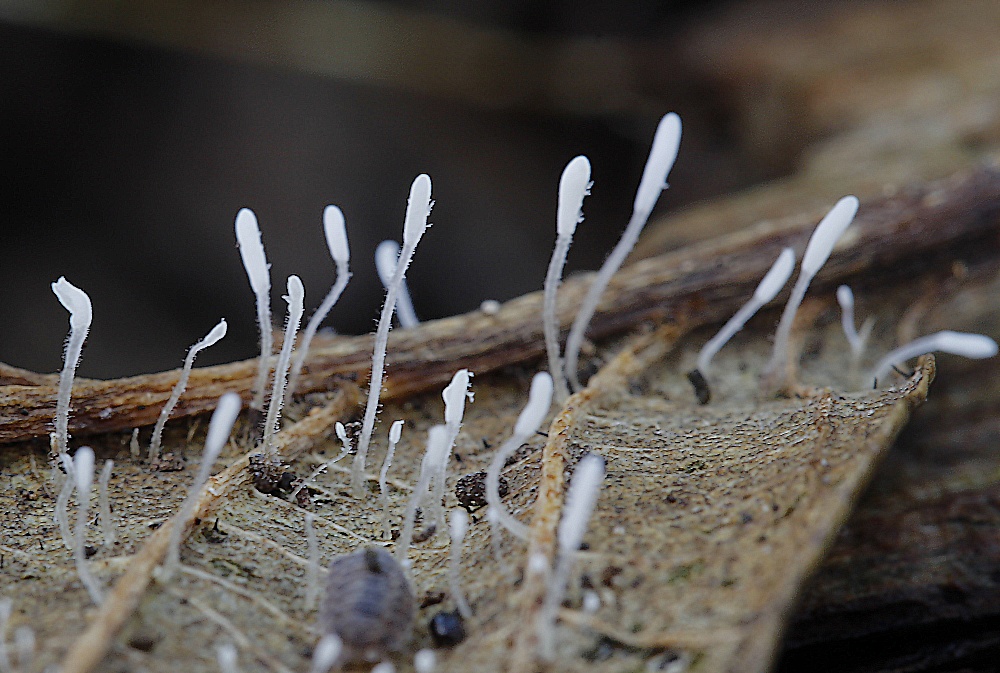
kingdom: Fungi
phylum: Basidiomycota
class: Agaricomycetes
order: Agaricales
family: Typhulaceae
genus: Typhula
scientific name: Typhula setipes
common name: liden trådkølle
